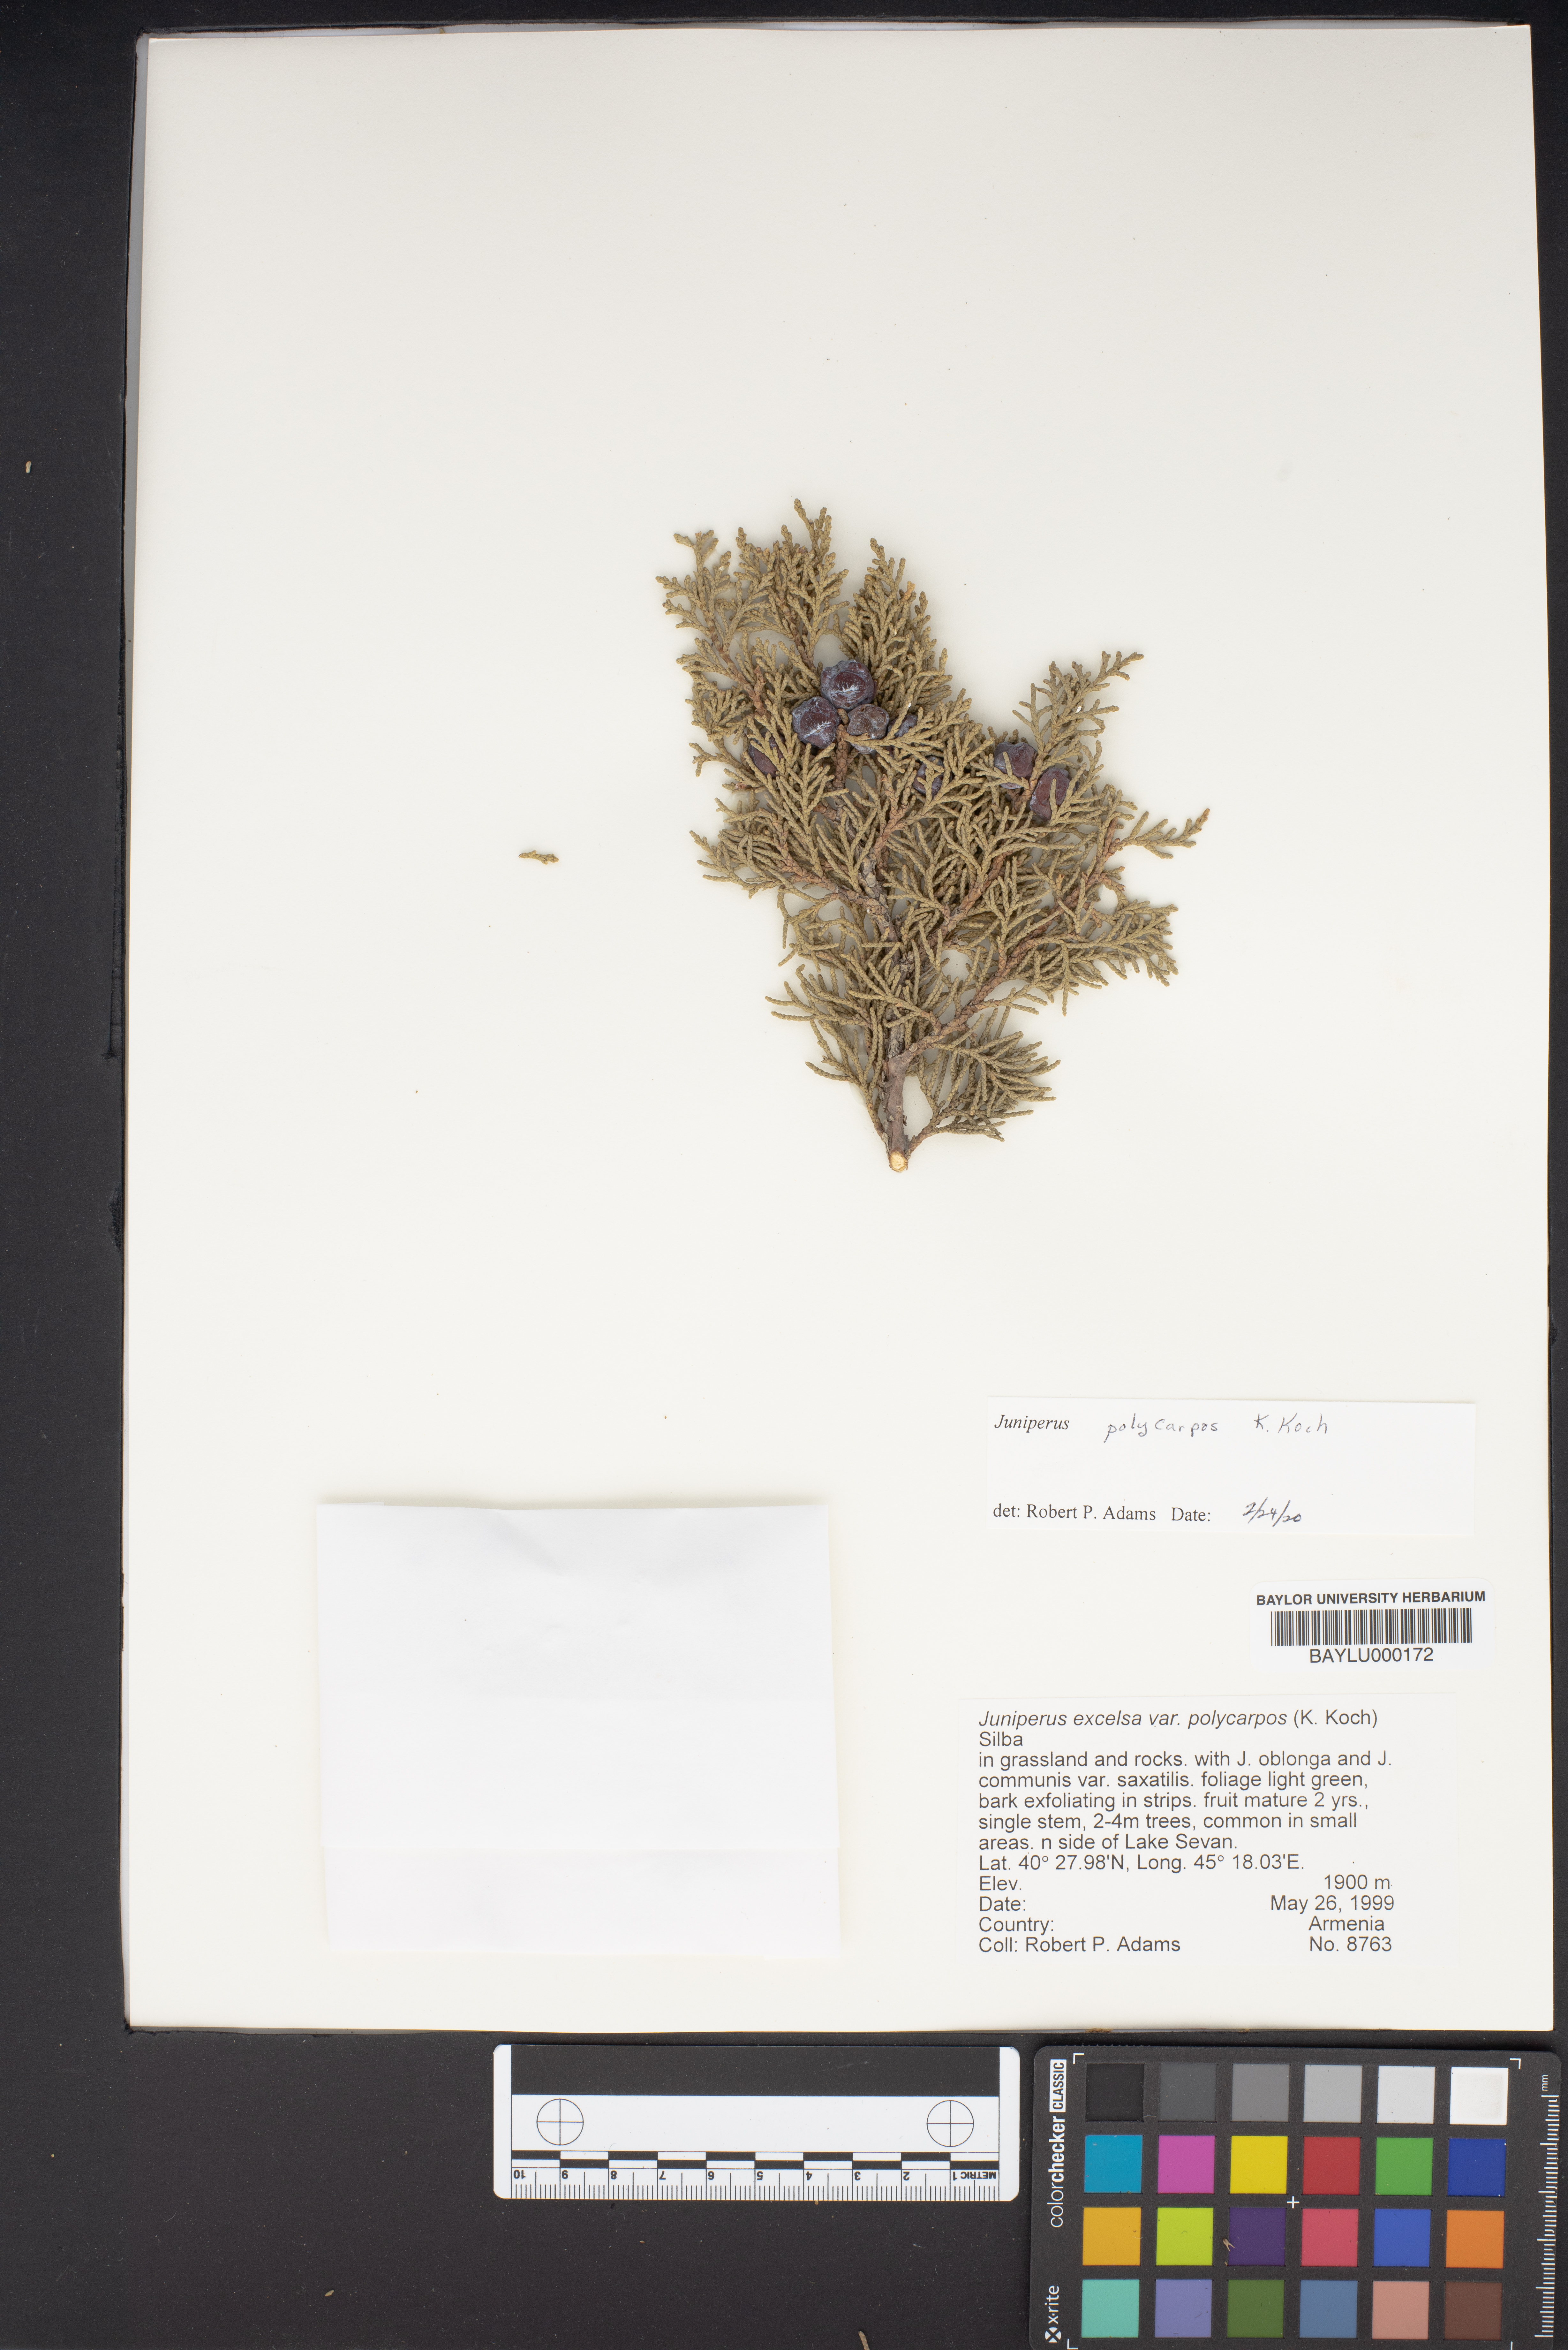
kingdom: Plantae
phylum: Tracheophyta
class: Pinopsida
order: Pinales
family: Cupressaceae
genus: Juniperus
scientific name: Juniperus excelsa
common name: Crimean juniper
